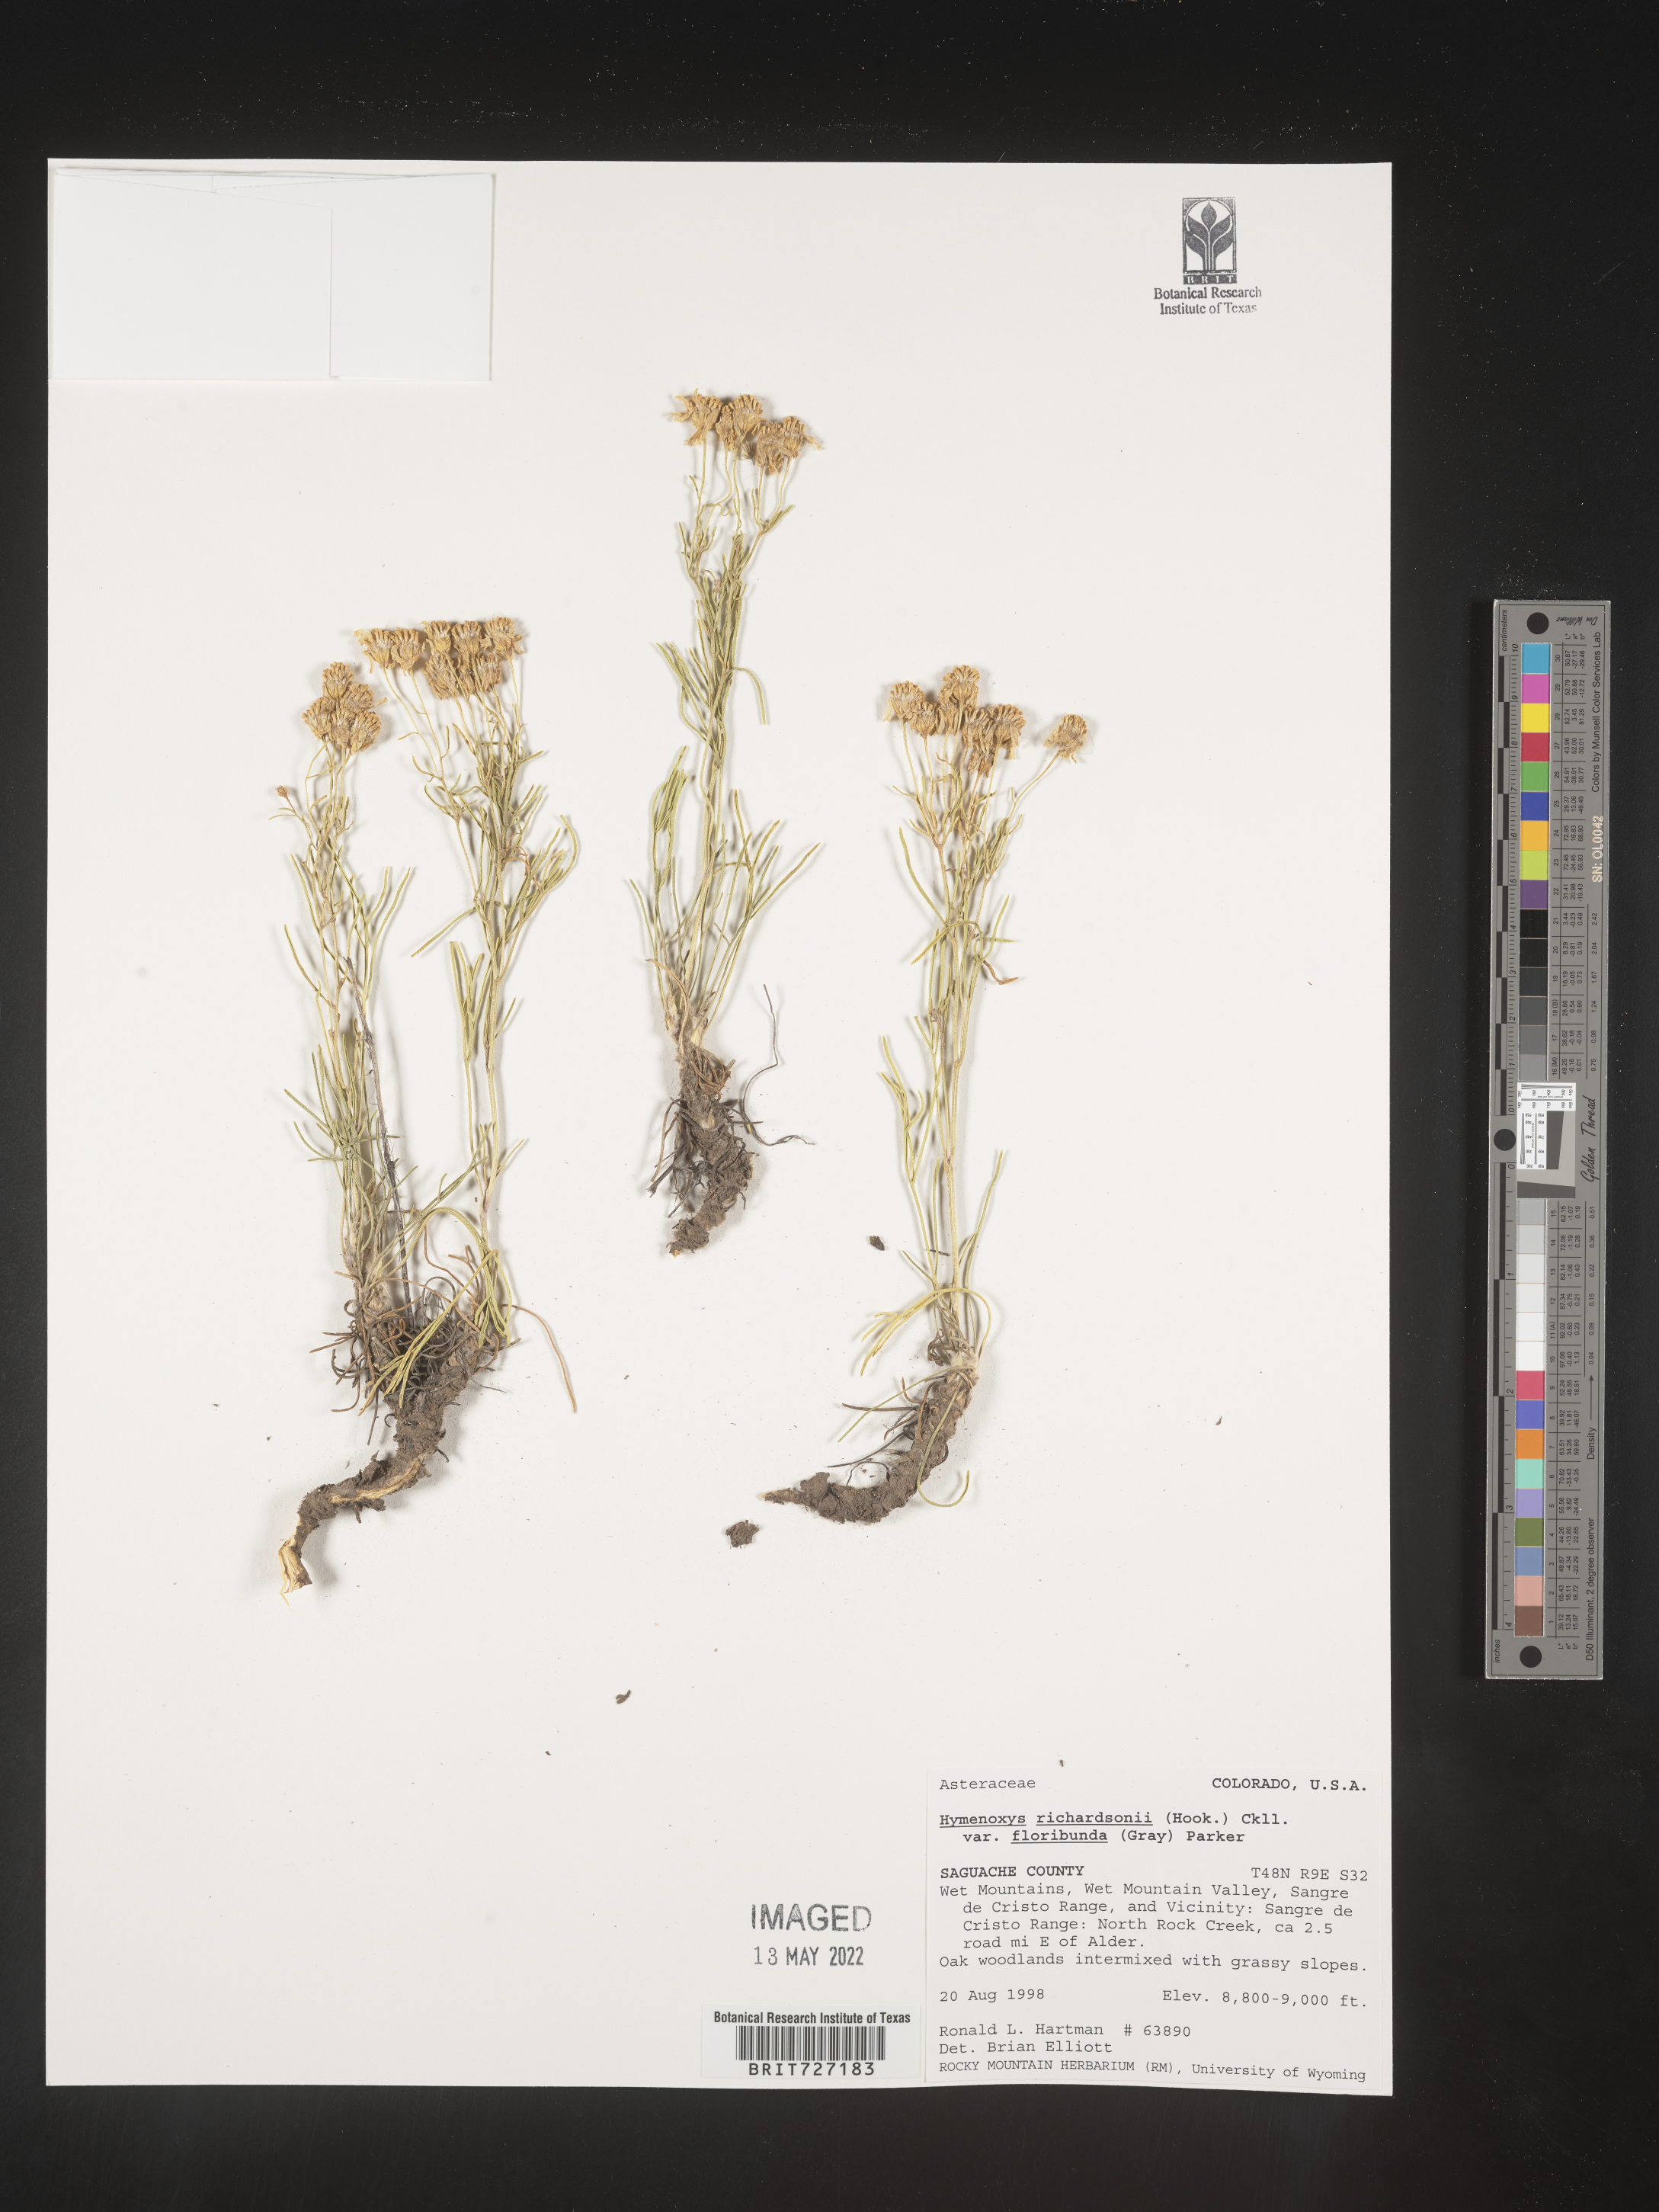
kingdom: Plantae
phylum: Tracheophyta
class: Magnoliopsida
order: Asterales
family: Asteraceae
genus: Hymenoxys
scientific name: Hymenoxys richardsonii
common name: Pingue rubberweed
